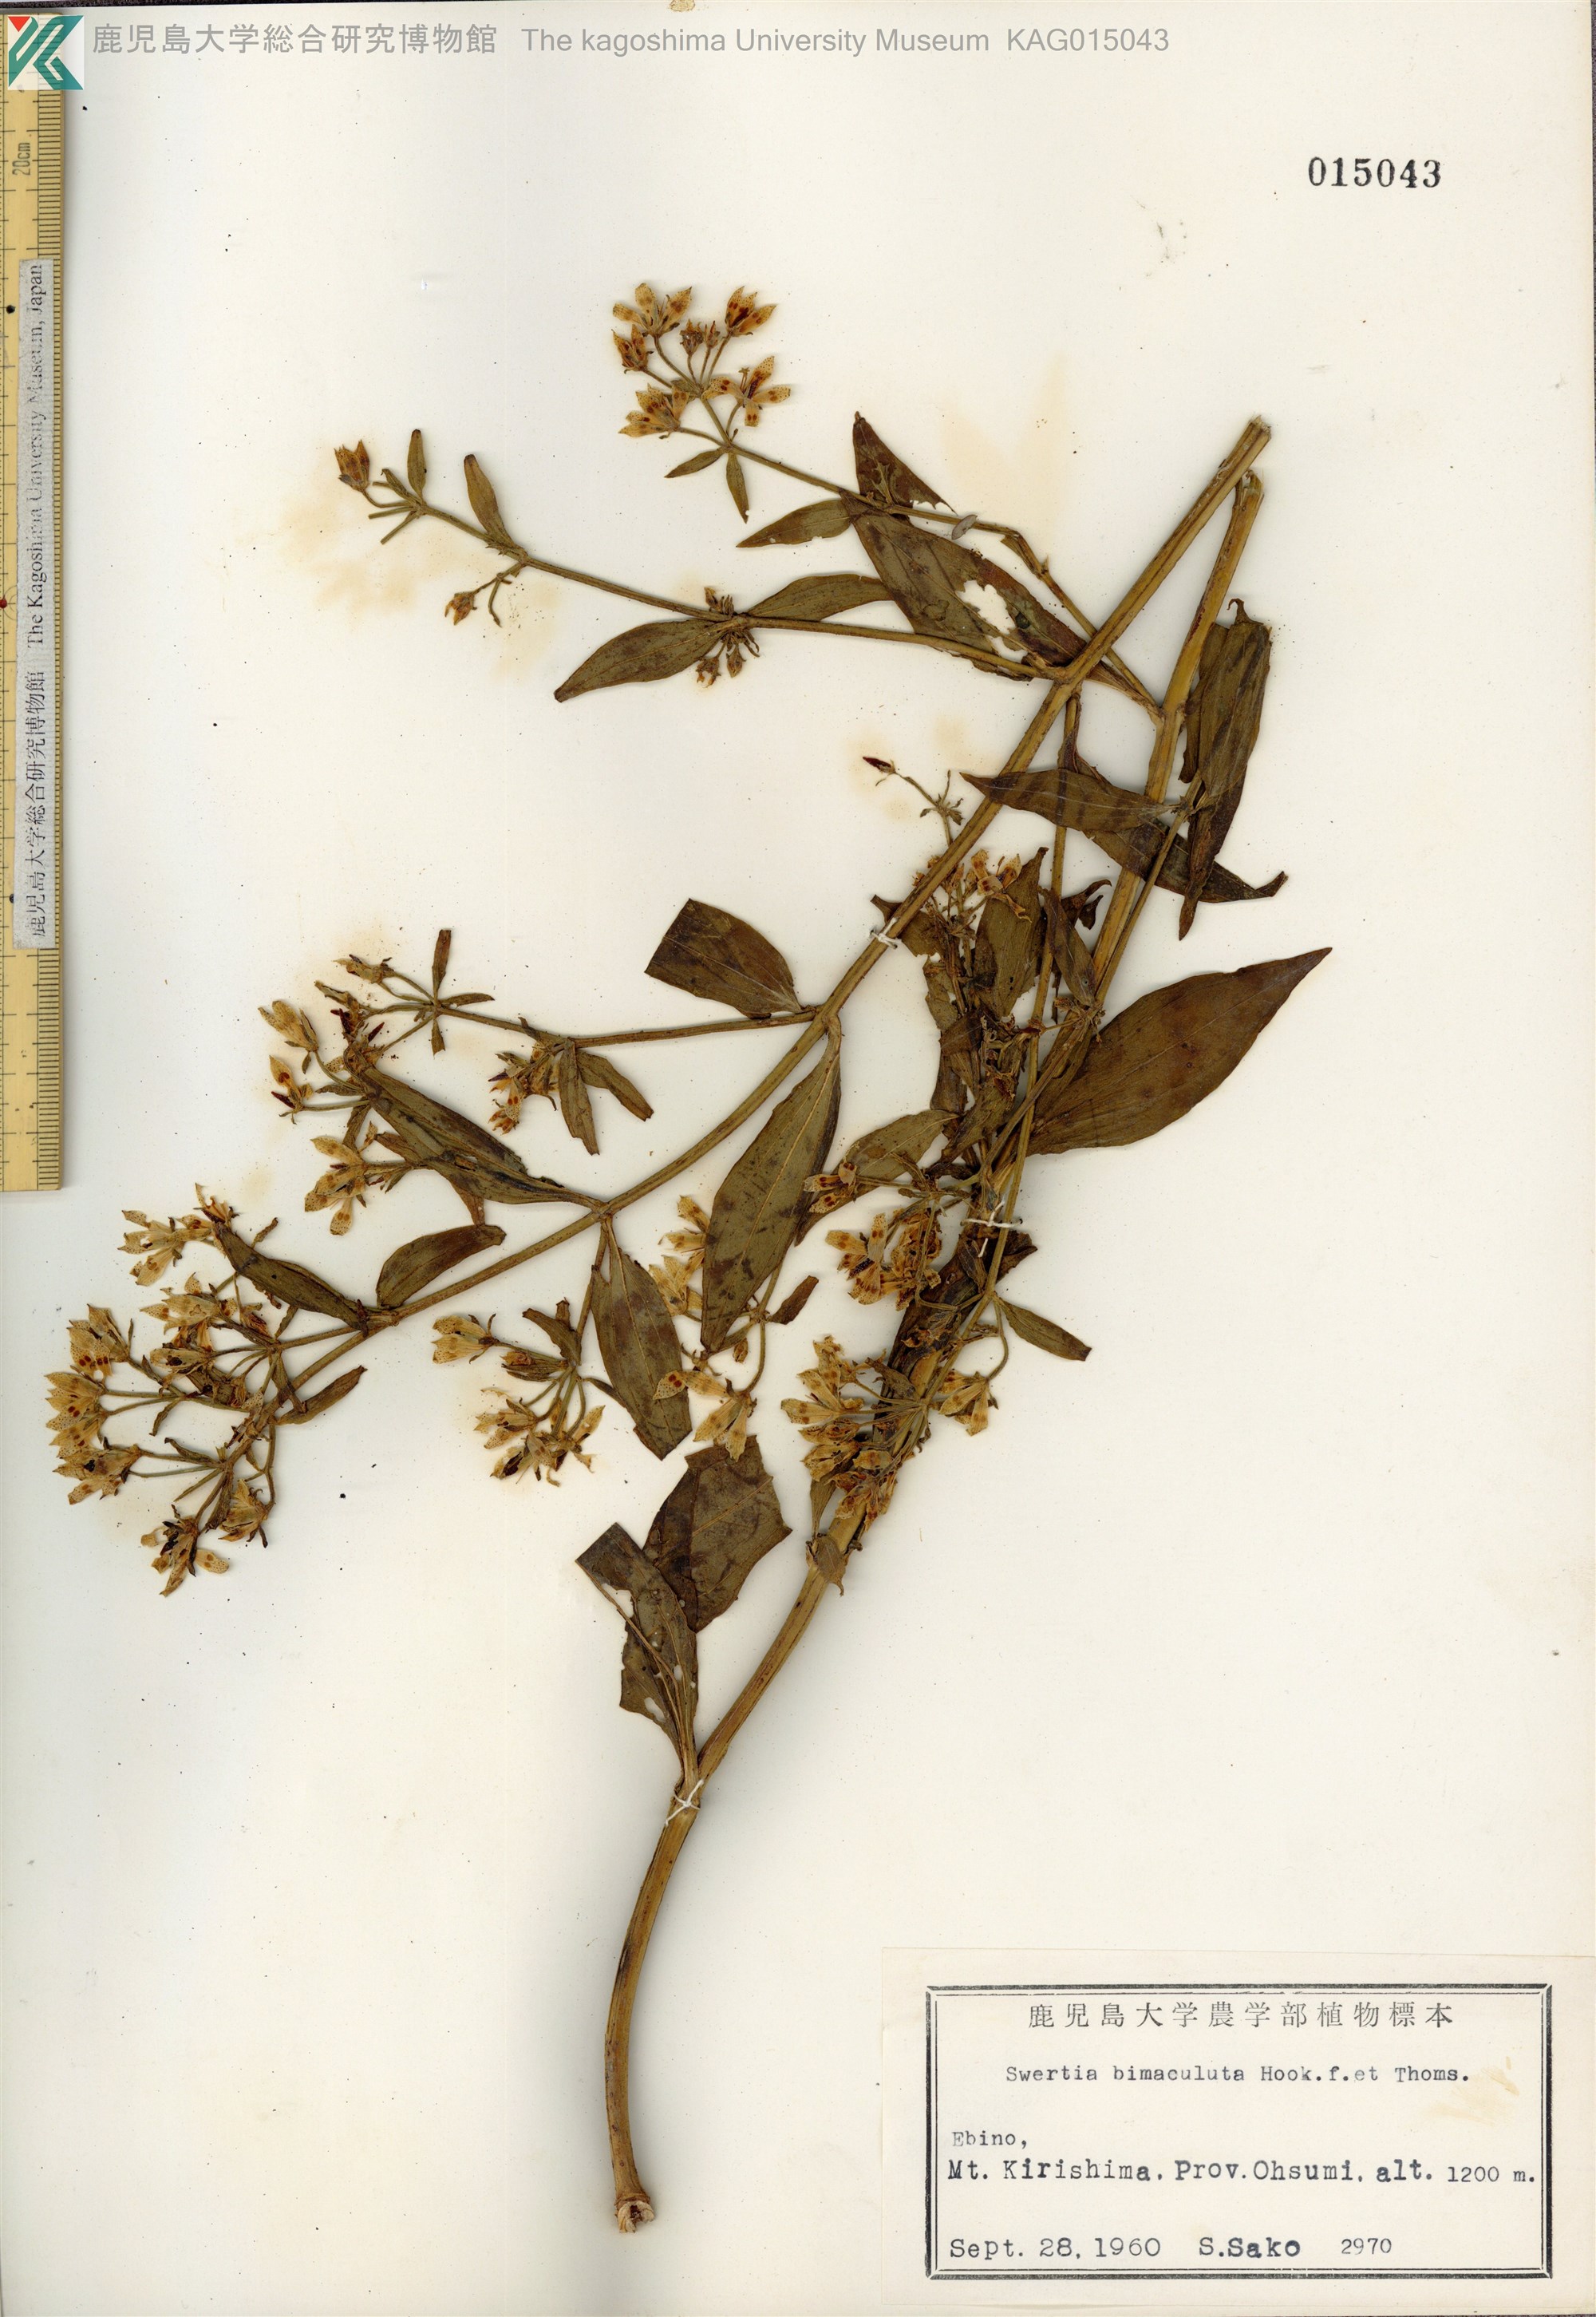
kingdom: Plantae
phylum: Tracheophyta
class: Magnoliopsida
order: Gentianales
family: Gentianaceae
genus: Swertia
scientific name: Swertia bimaculata
